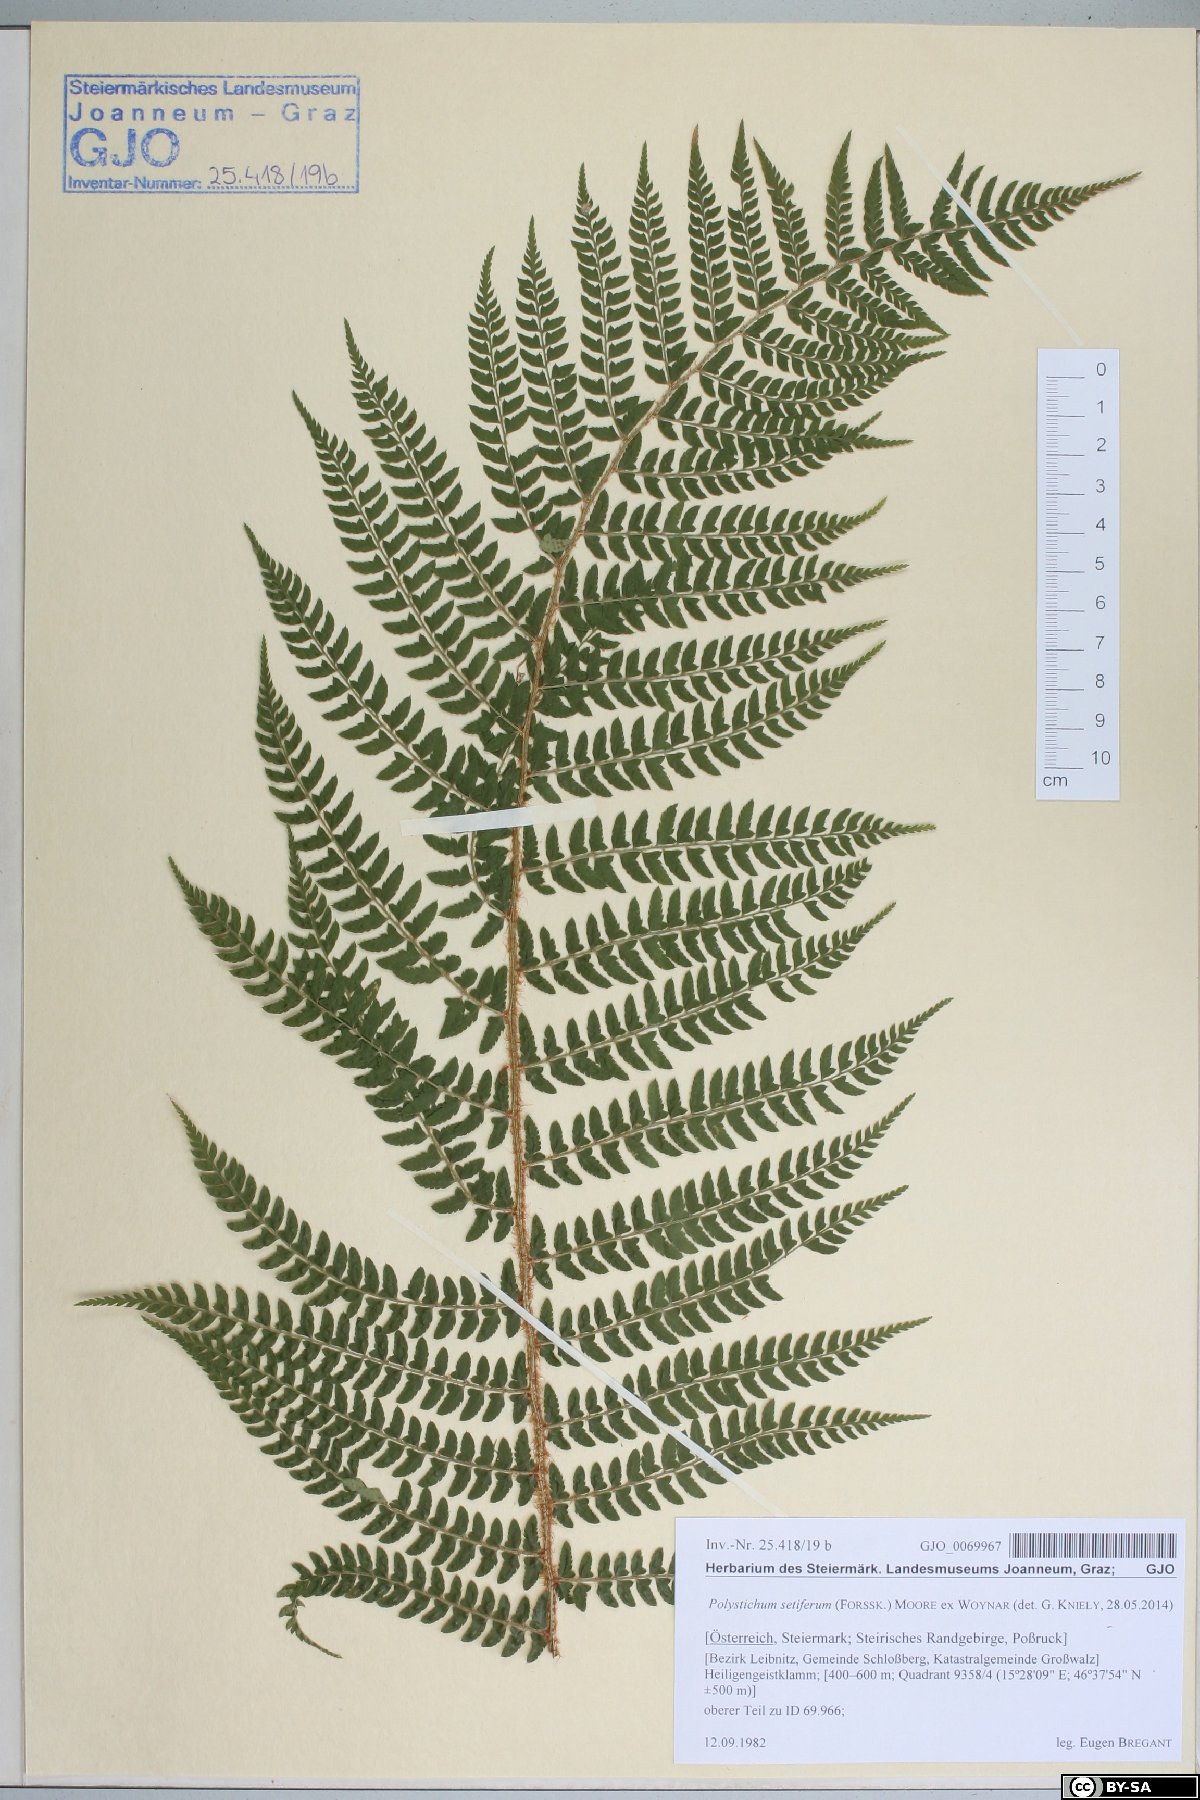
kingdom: Plantae
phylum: Tracheophyta
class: Polypodiopsida
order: Polypodiales
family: Dryopteridaceae
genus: Polystichum
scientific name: Polystichum setiferum
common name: Soft shield-fern
